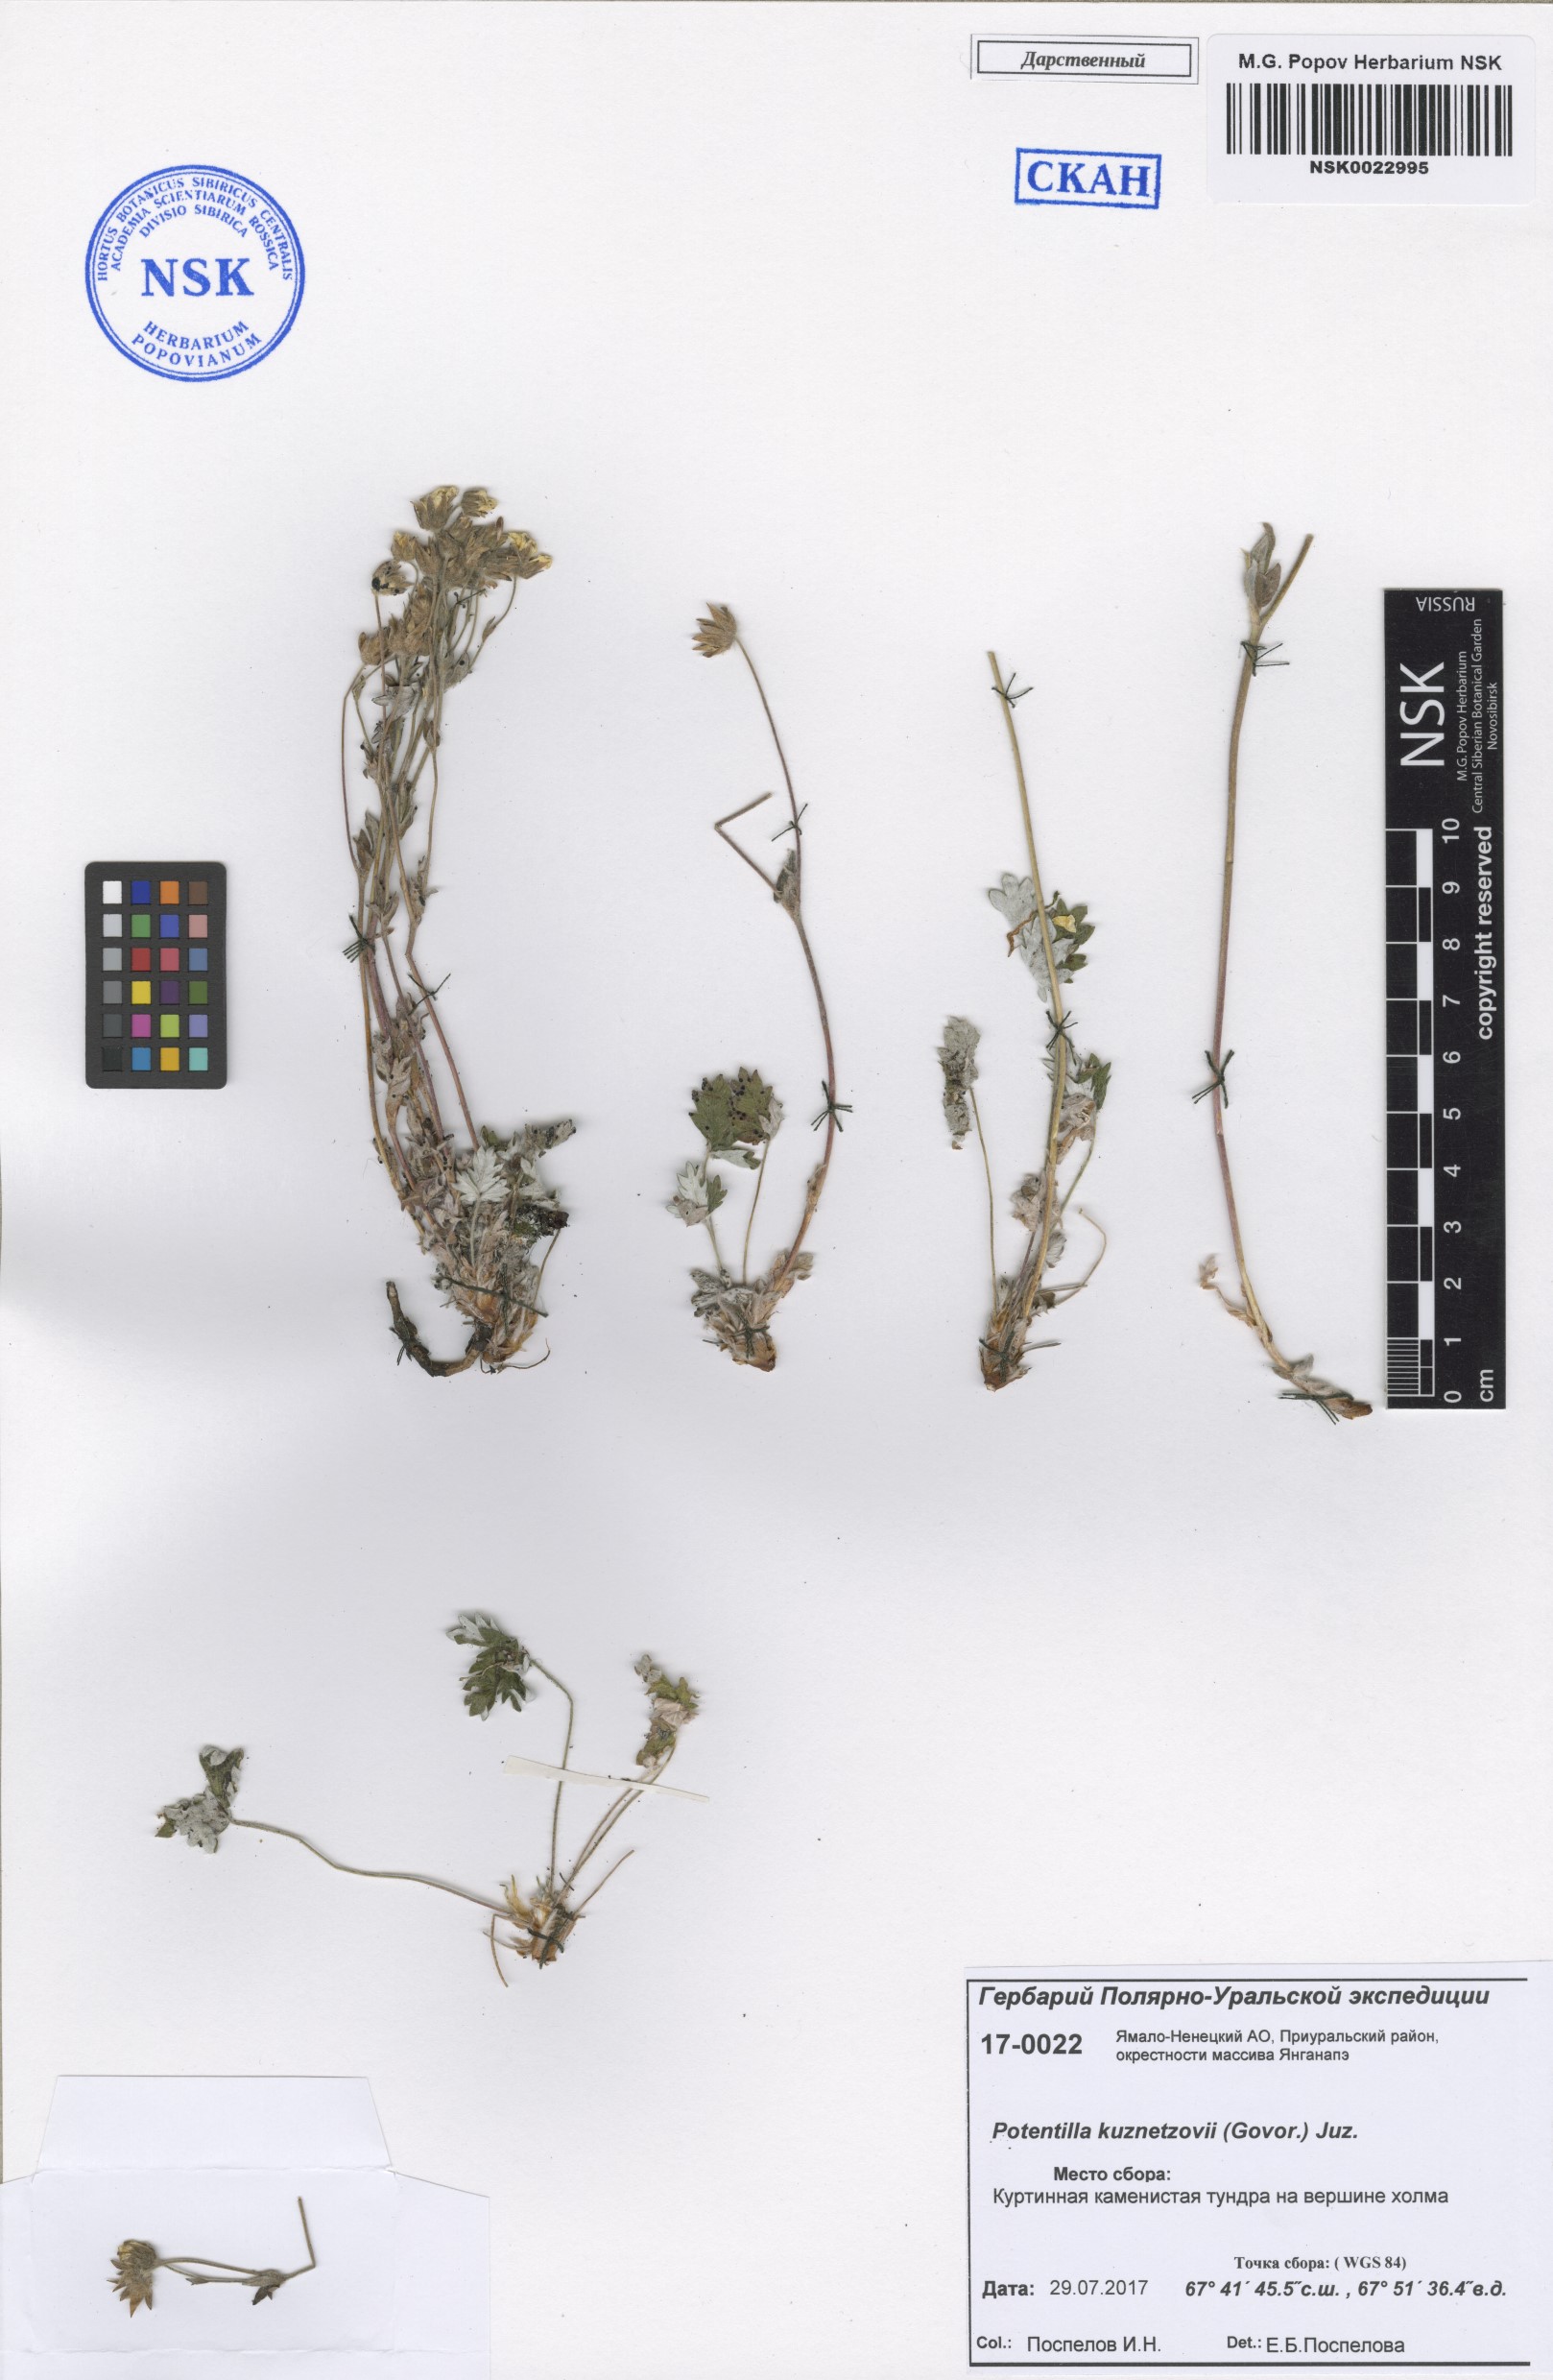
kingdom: Plantae
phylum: Tracheophyta
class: Magnoliopsida
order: Rosales
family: Rosaceae
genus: Potentilla
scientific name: Potentilla chamissonis
